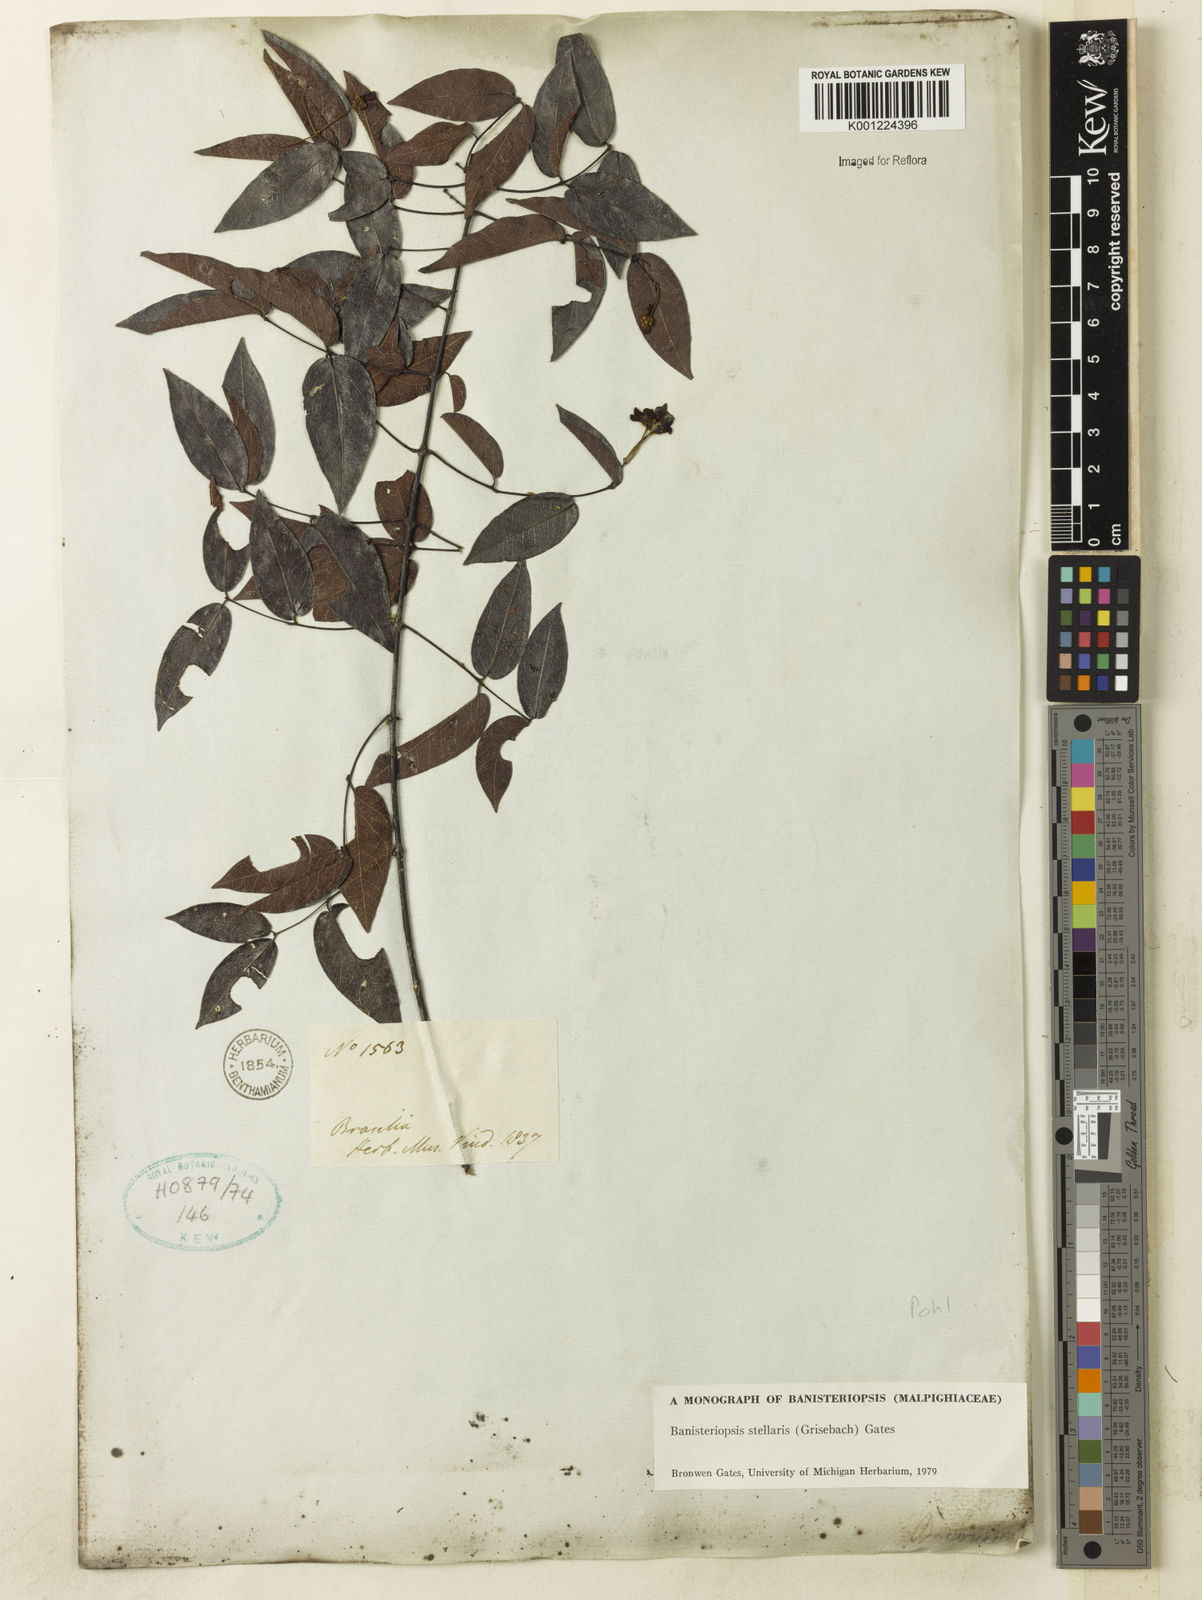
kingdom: Plantae
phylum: Tracheophyta
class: Magnoliopsida
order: Malpighiales
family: Malpighiaceae
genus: Banisteriopsis
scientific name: Banisteriopsis stellaris
